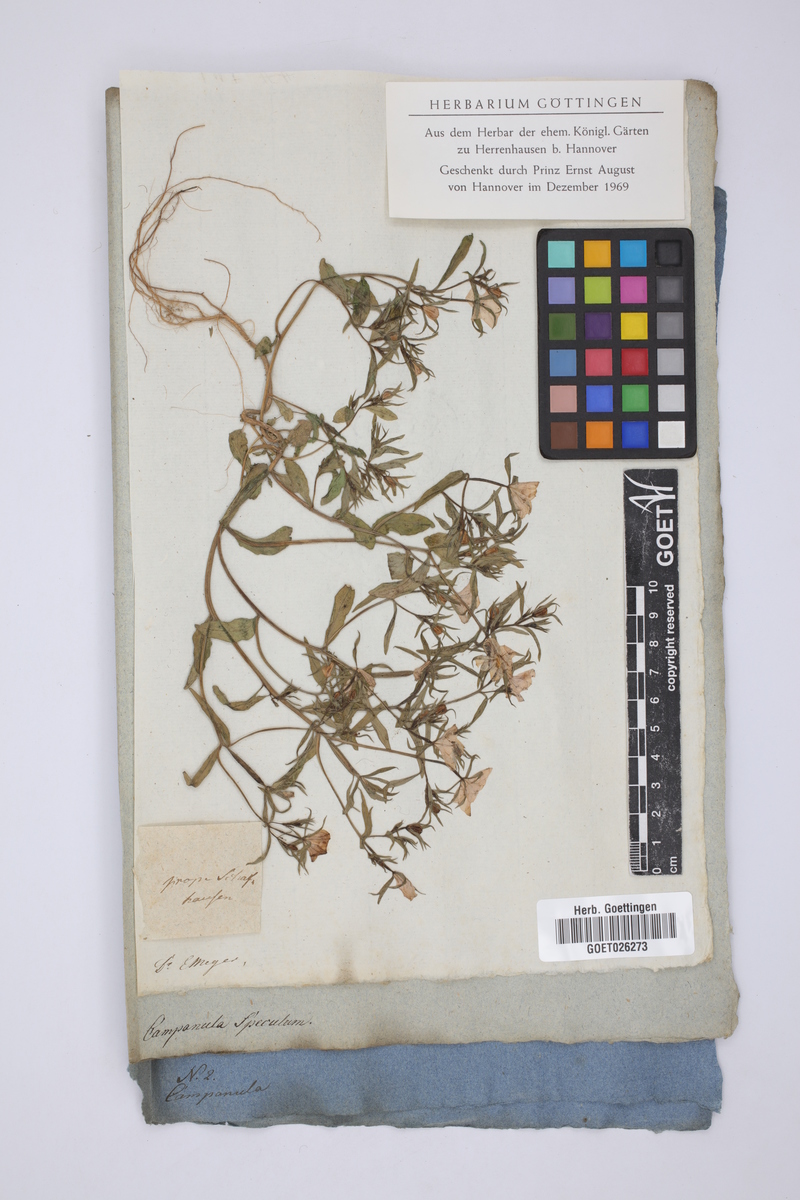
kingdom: Plantae
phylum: Tracheophyta
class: Magnoliopsida
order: Asterales
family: Campanulaceae
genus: Campanula
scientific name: Campanula speculum
